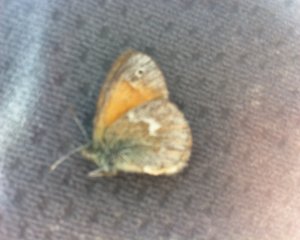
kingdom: Animalia
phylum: Arthropoda
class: Insecta
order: Lepidoptera
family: Nymphalidae
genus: Coenonympha
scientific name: Coenonympha tullia
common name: Large Heath
